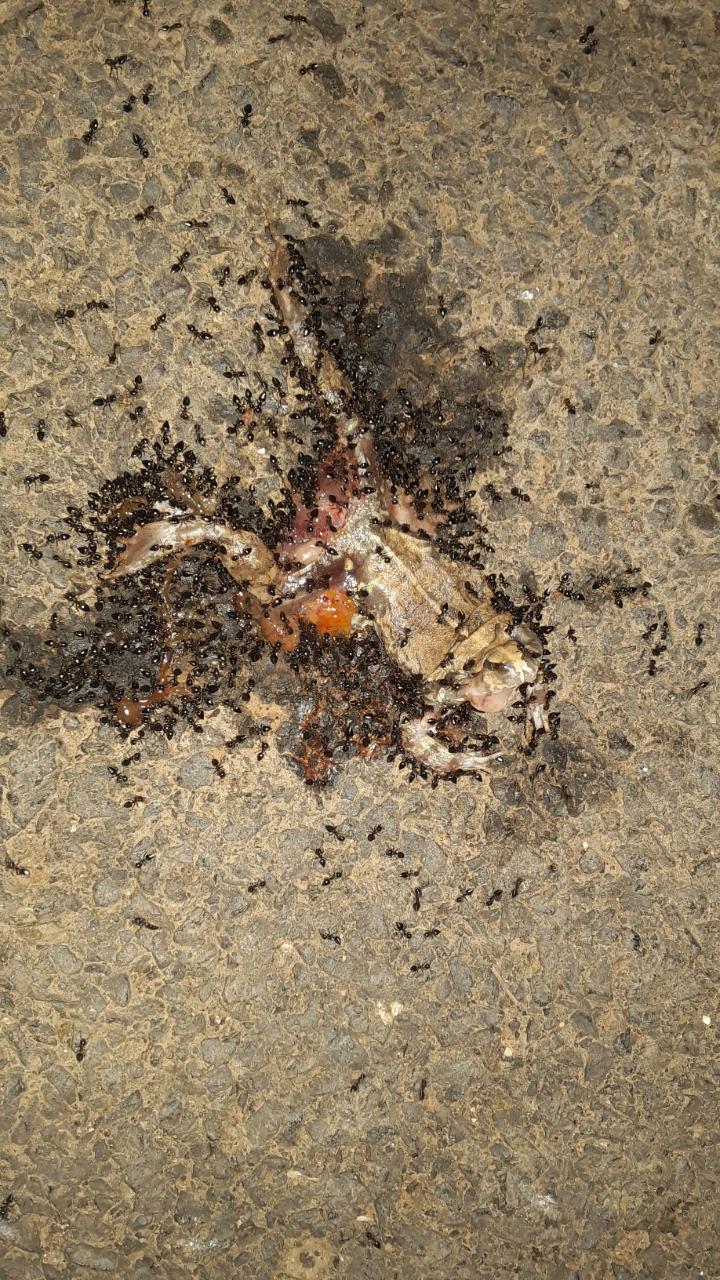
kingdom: Animalia
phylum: Chordata
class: Amphibia
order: Anura
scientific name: Anura
